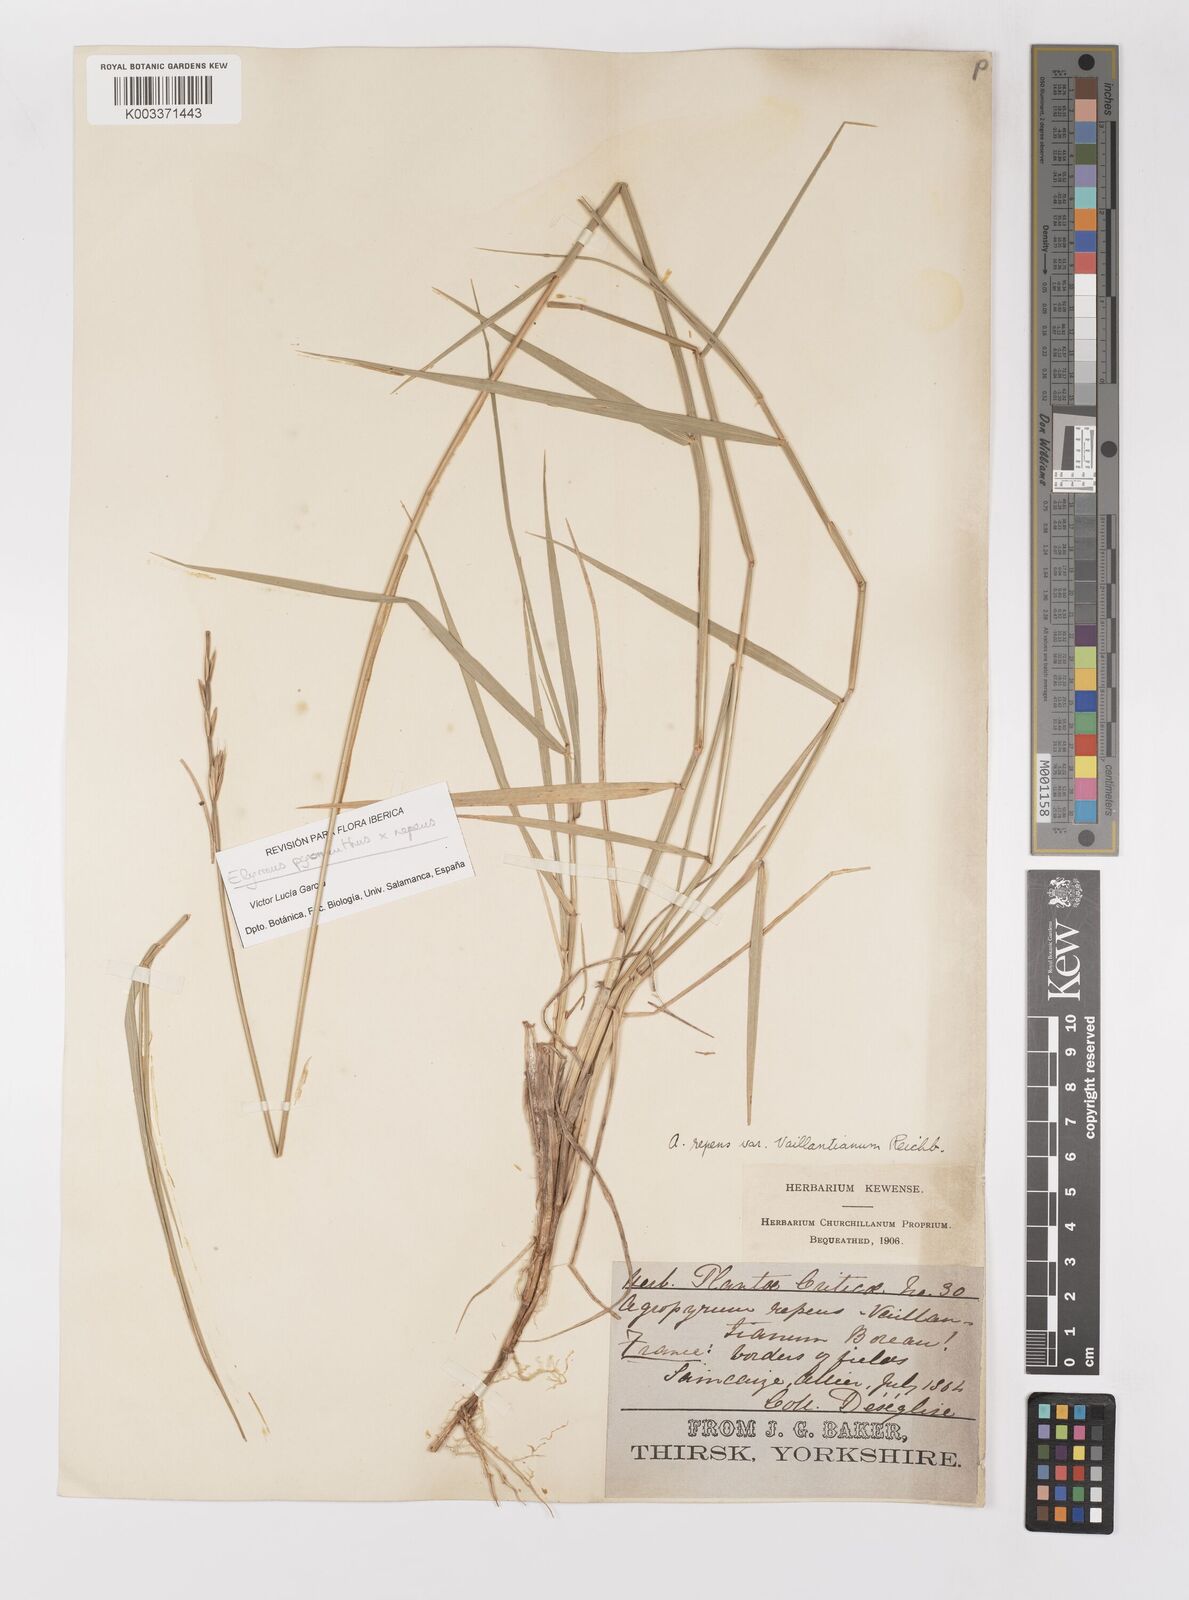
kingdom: Plantae
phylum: Tracheophyta
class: Liliopsida
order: Poales
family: Poaceae
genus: Elymus
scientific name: Elymus repens
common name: Quackgrass
